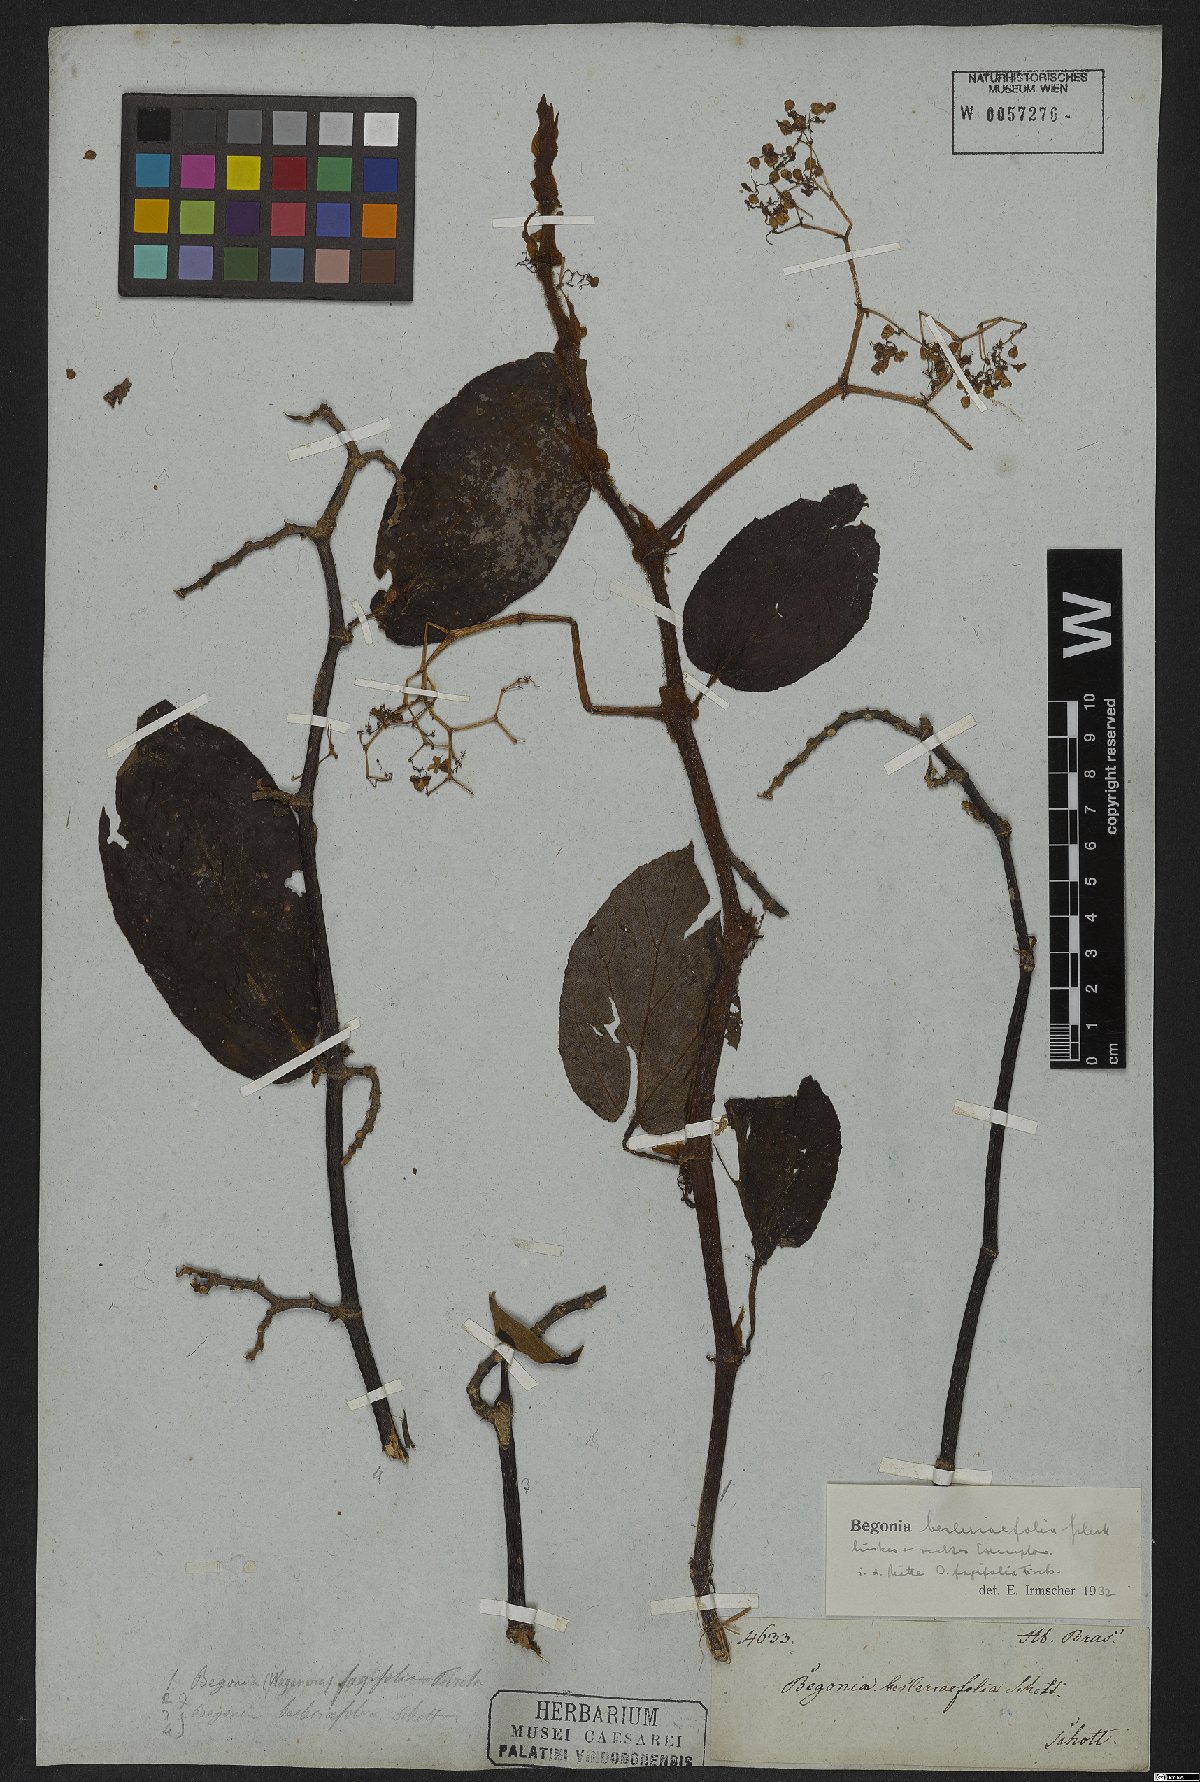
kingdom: Plantae
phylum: Tracheophyta
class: Magnoliopsida
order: Cucurbitales
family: Begoniaceae
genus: Begonia
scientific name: Begonia besleriifolia
